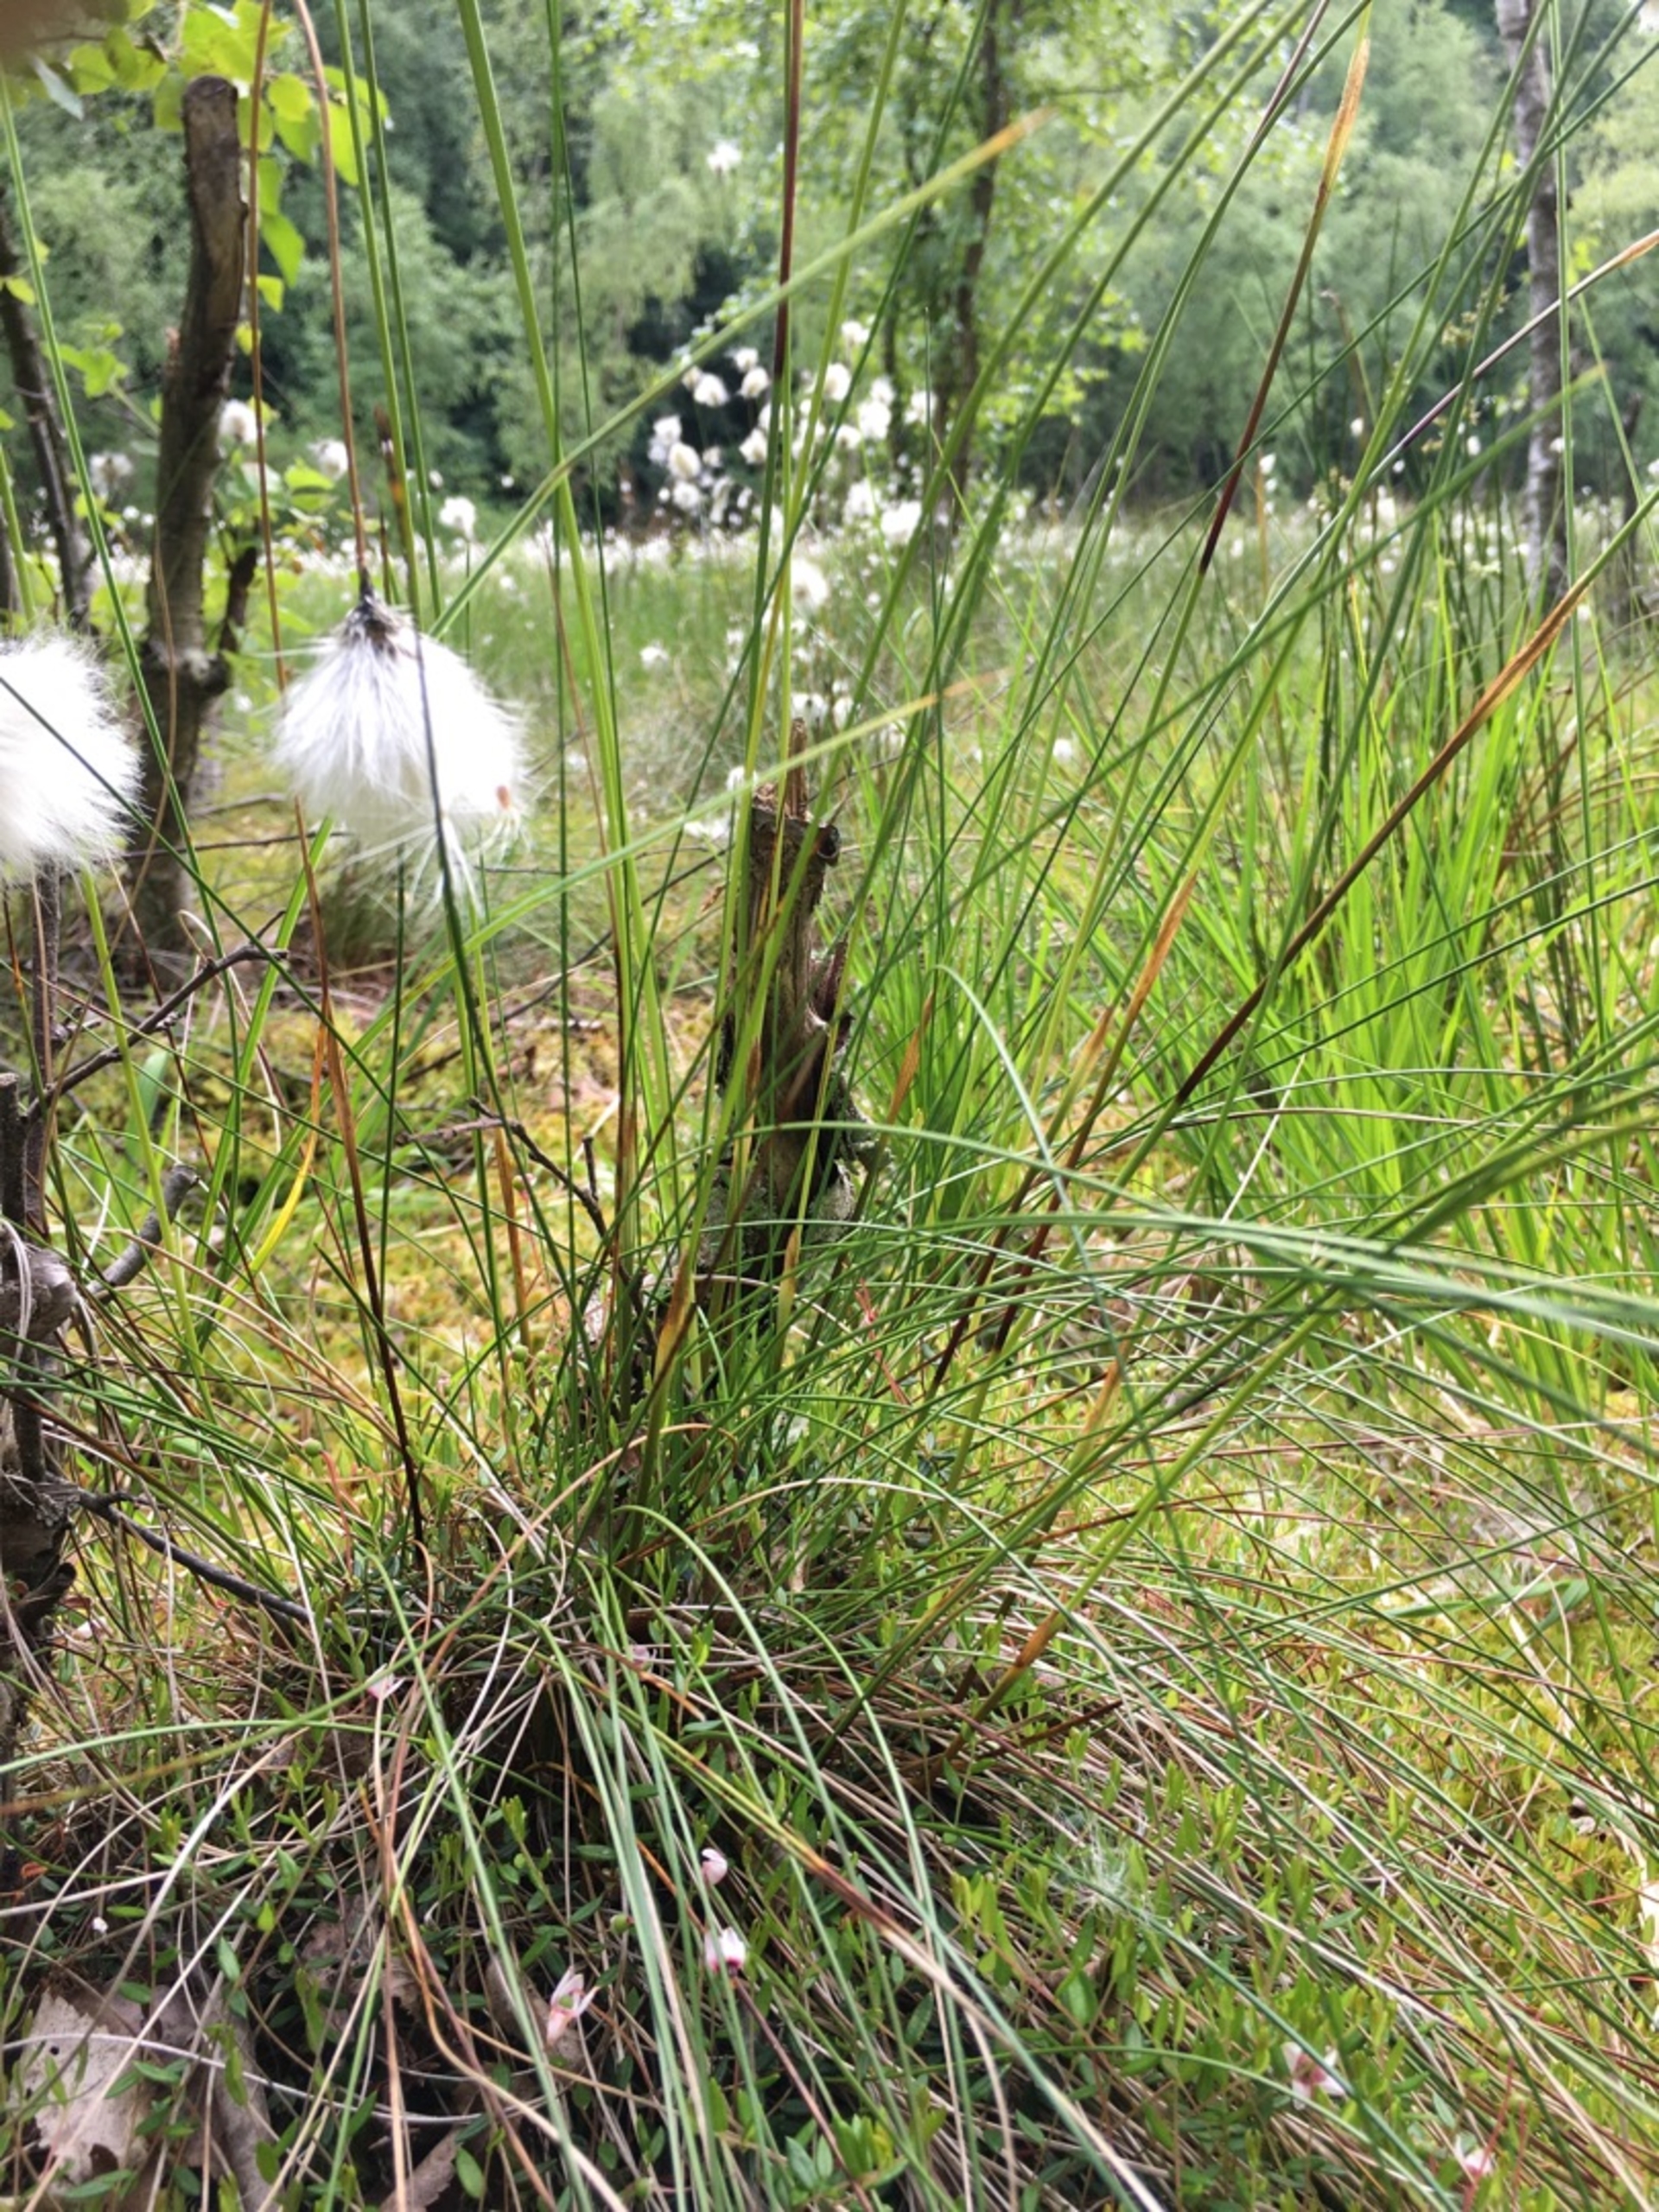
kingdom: Plantae
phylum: Tracheophyta
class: Liliopsida
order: Poales
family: Cyperaceae
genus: Eriophorum
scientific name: Eriophorum vaginatum
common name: Tue-kæruld
